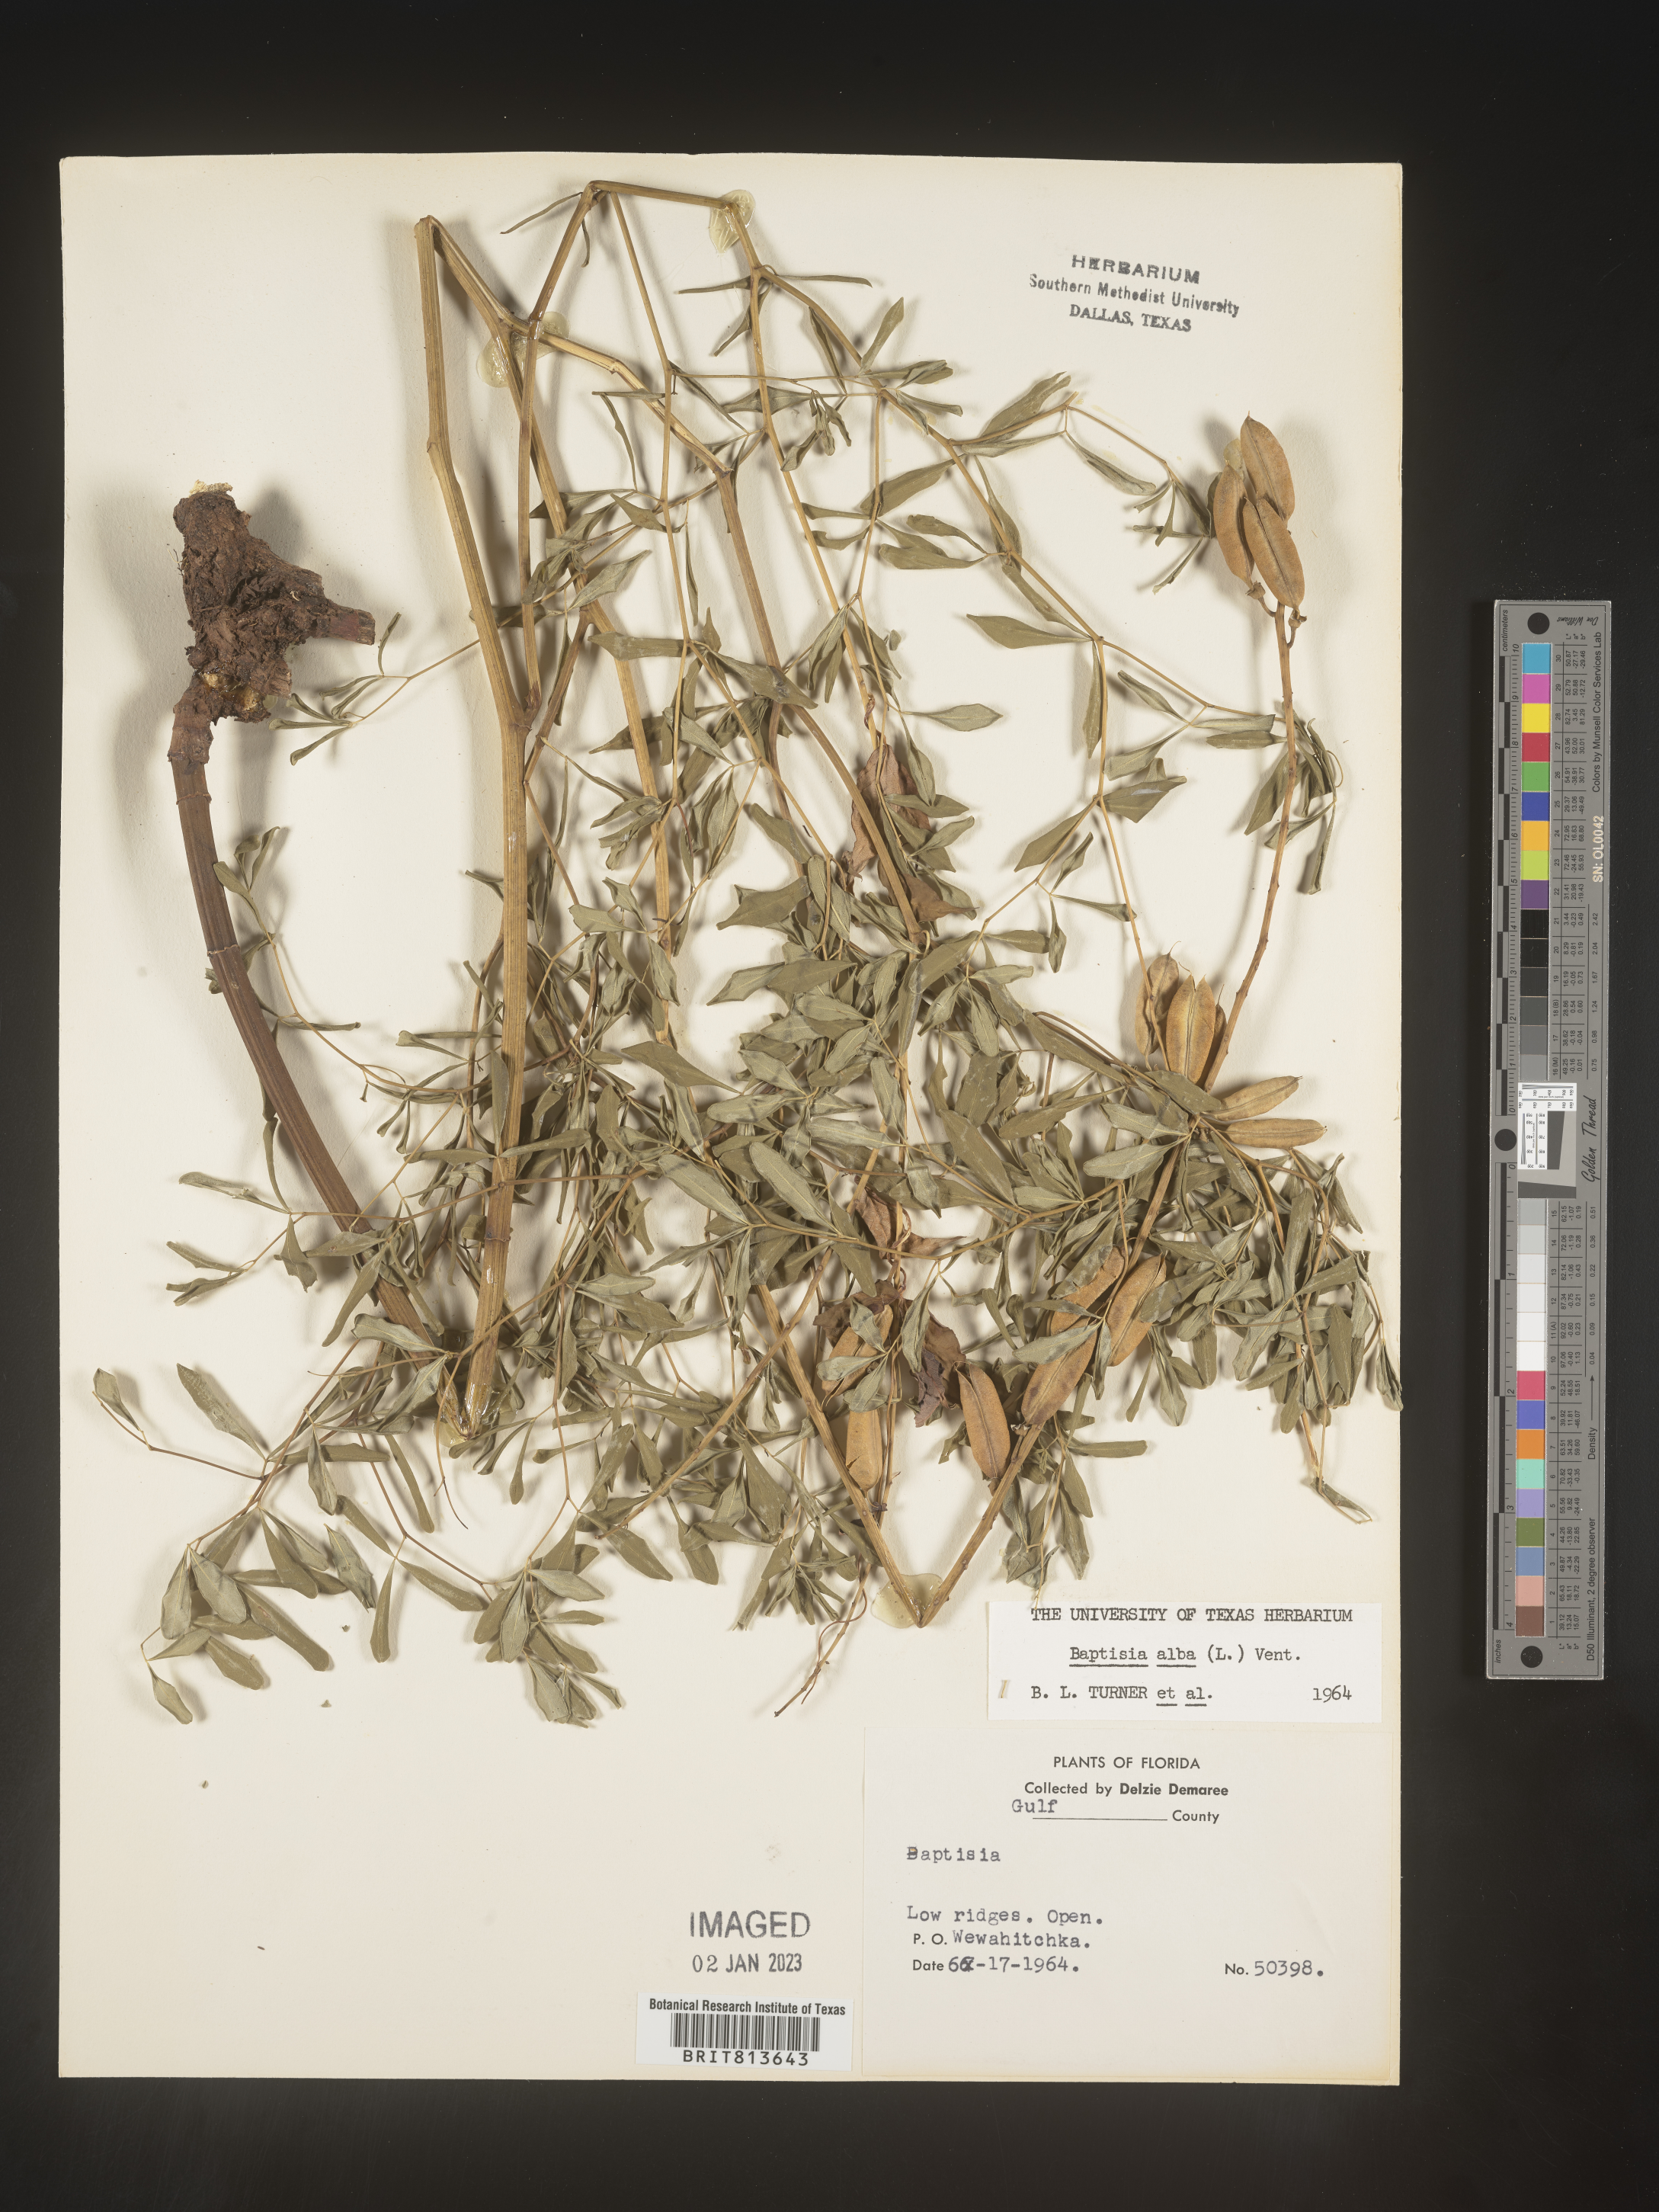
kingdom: Plantae
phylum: Tracheophyta
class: Magnoliopsida
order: Fabales
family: Fabaceae
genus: Baptisia
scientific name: Baptisia alba
